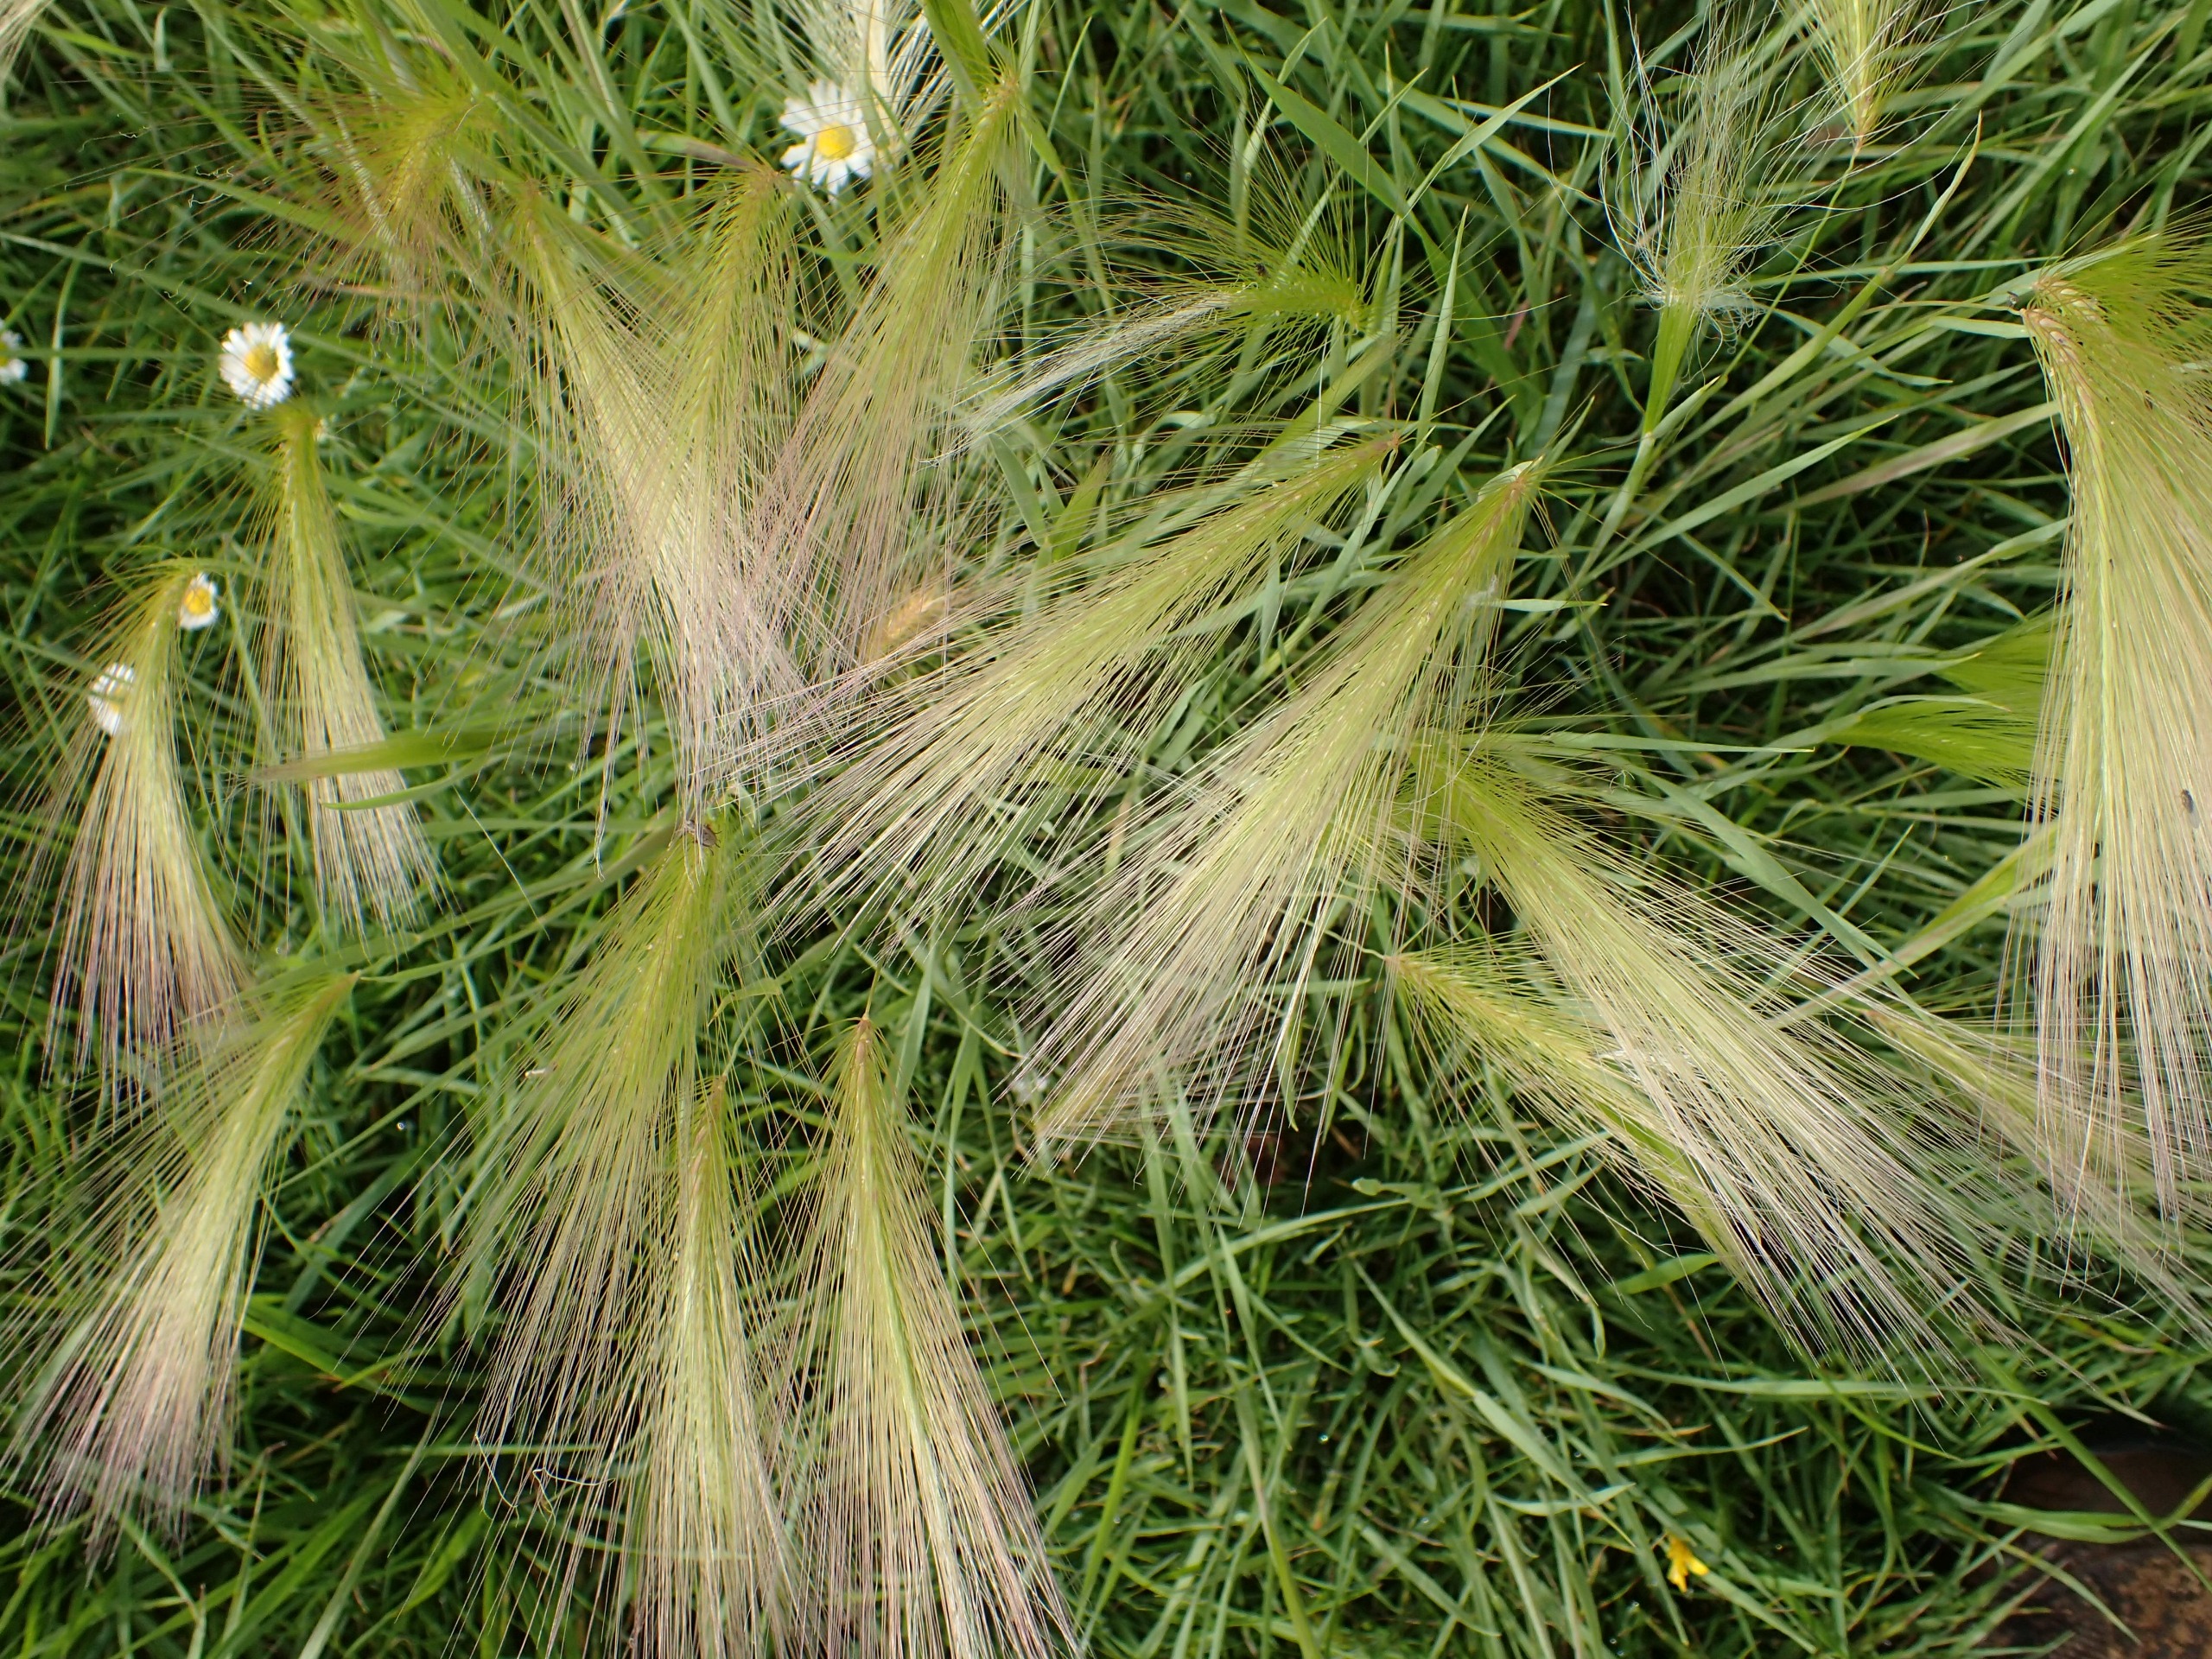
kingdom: Plantae
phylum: Tracheophyta
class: Liliopsida
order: Poales
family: Poaceae
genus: Hordeum
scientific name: Hordeum jubatum
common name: Egernhale-byg
